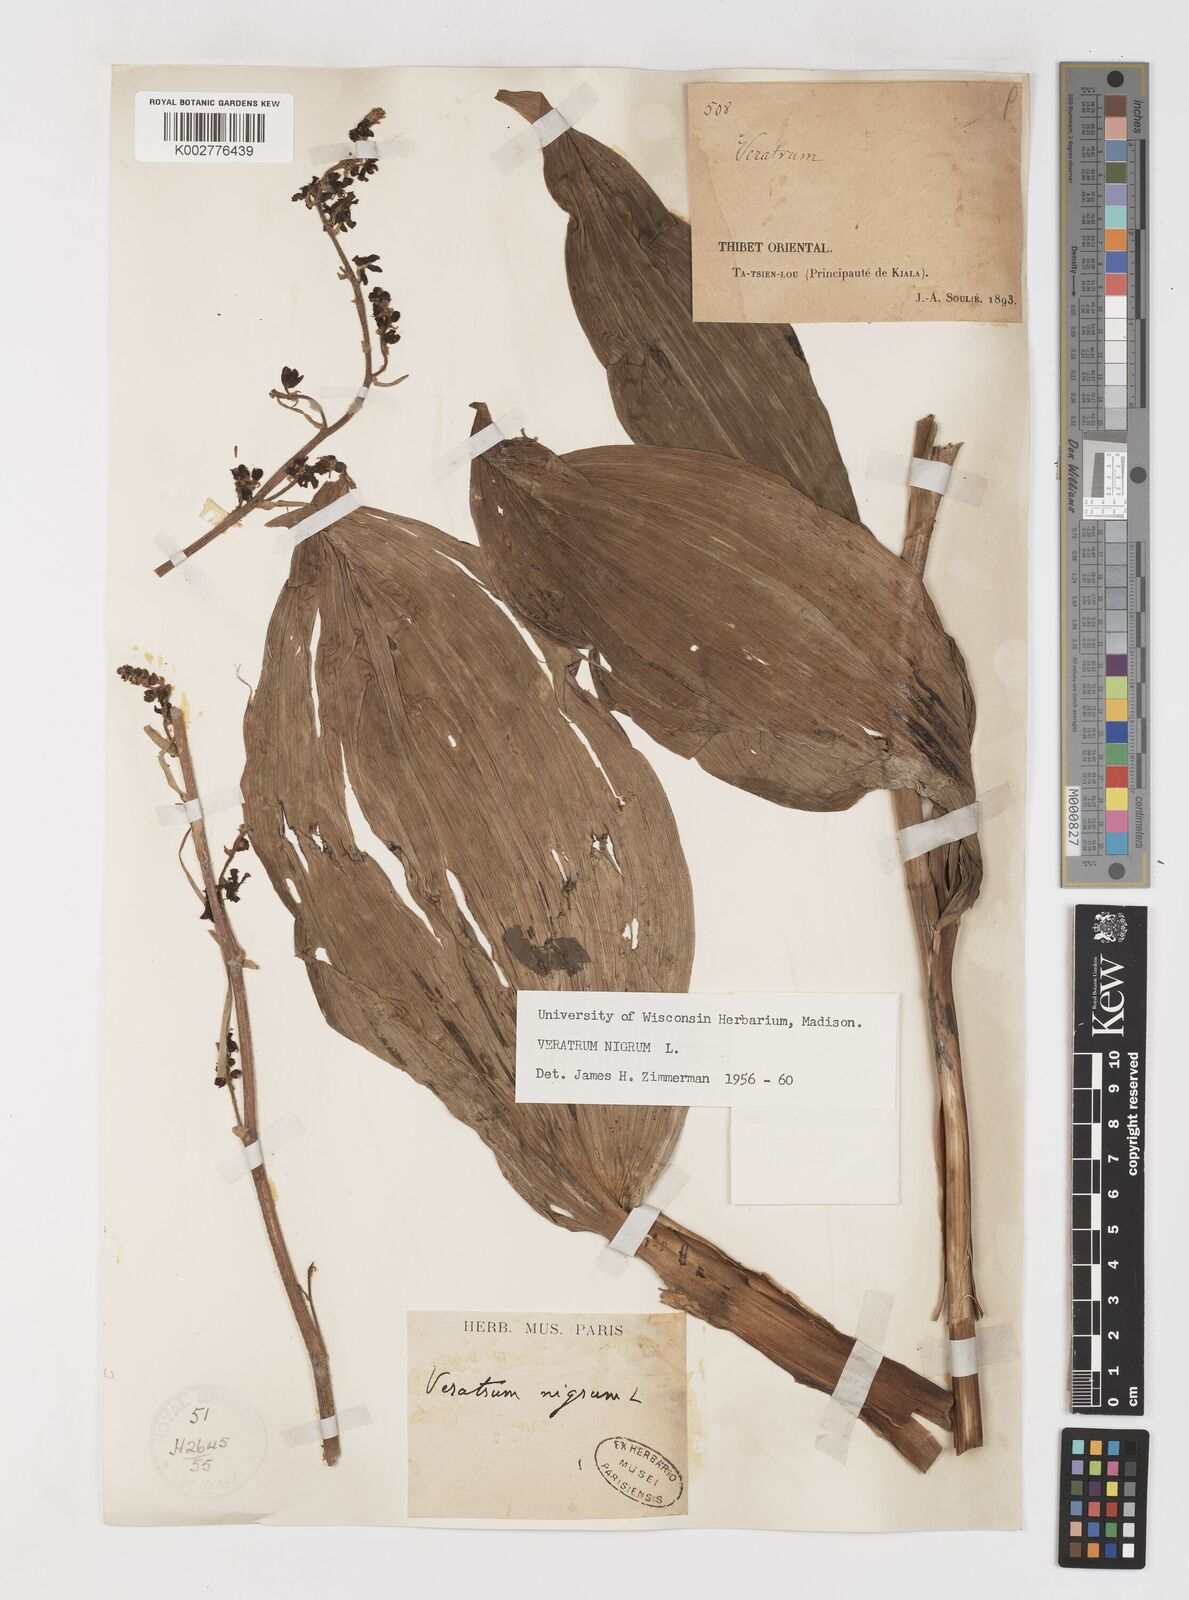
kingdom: Plantae
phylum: Tracheophyta
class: Liliopsida
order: Liliales
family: Melanthiaceae
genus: Veratrum
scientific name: Veratrum nigrum
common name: Black veratrum
